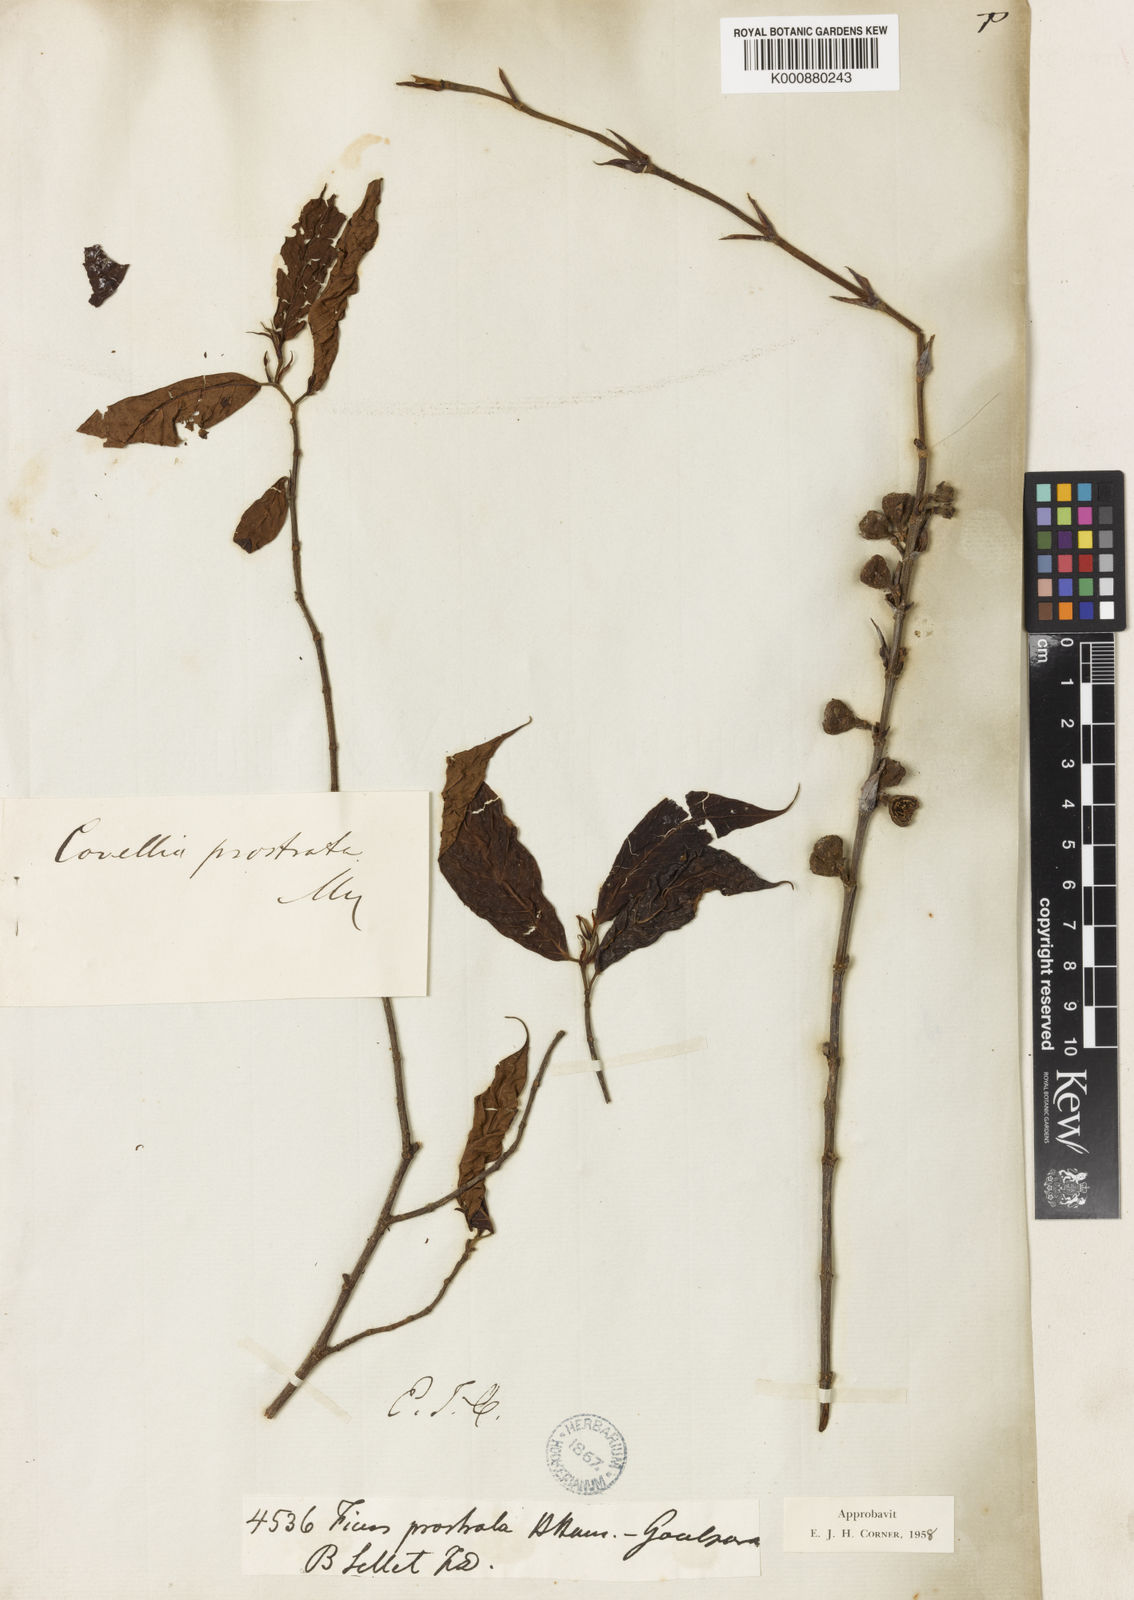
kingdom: Plantae
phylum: Tracheophyta
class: Magnoliopsida
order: Rosales
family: Moraceae
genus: Ficus
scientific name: Ficus prostrata
